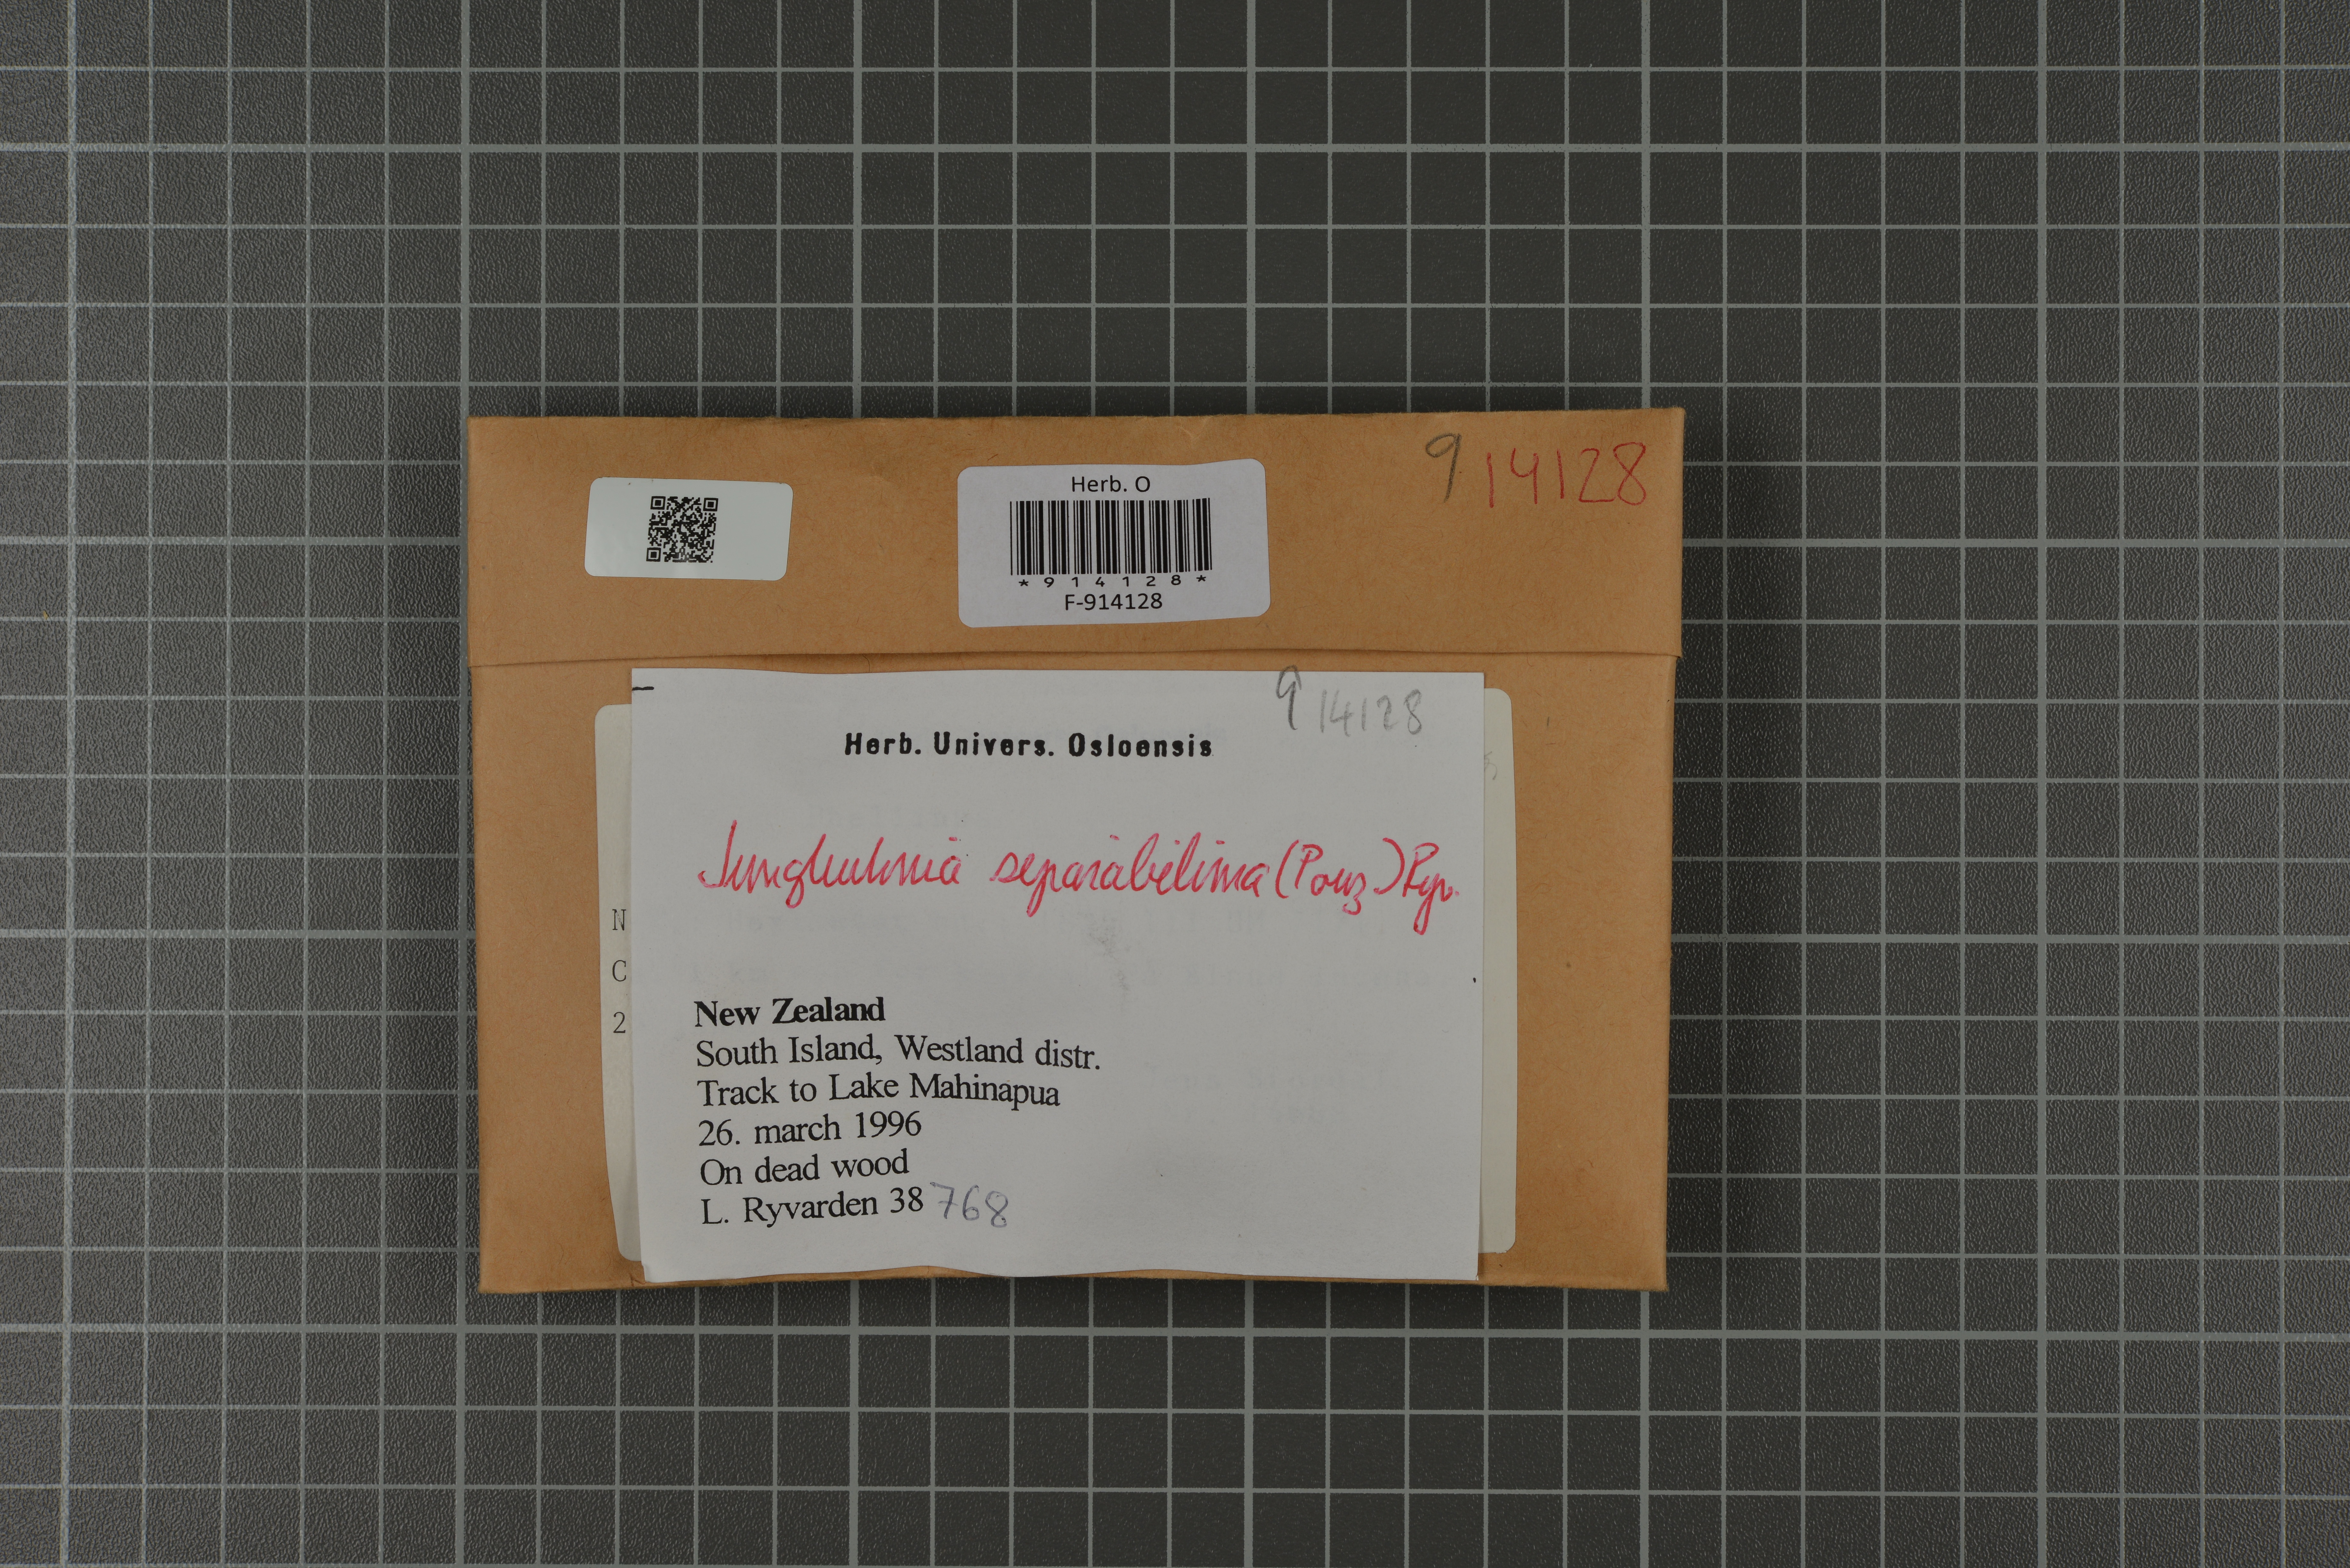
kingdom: Fungi
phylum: Basidiomycota
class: Agaricomycetes
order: Polyporales
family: Steccherinaceae
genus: Steccherinum
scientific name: Steccherinum lacerum
